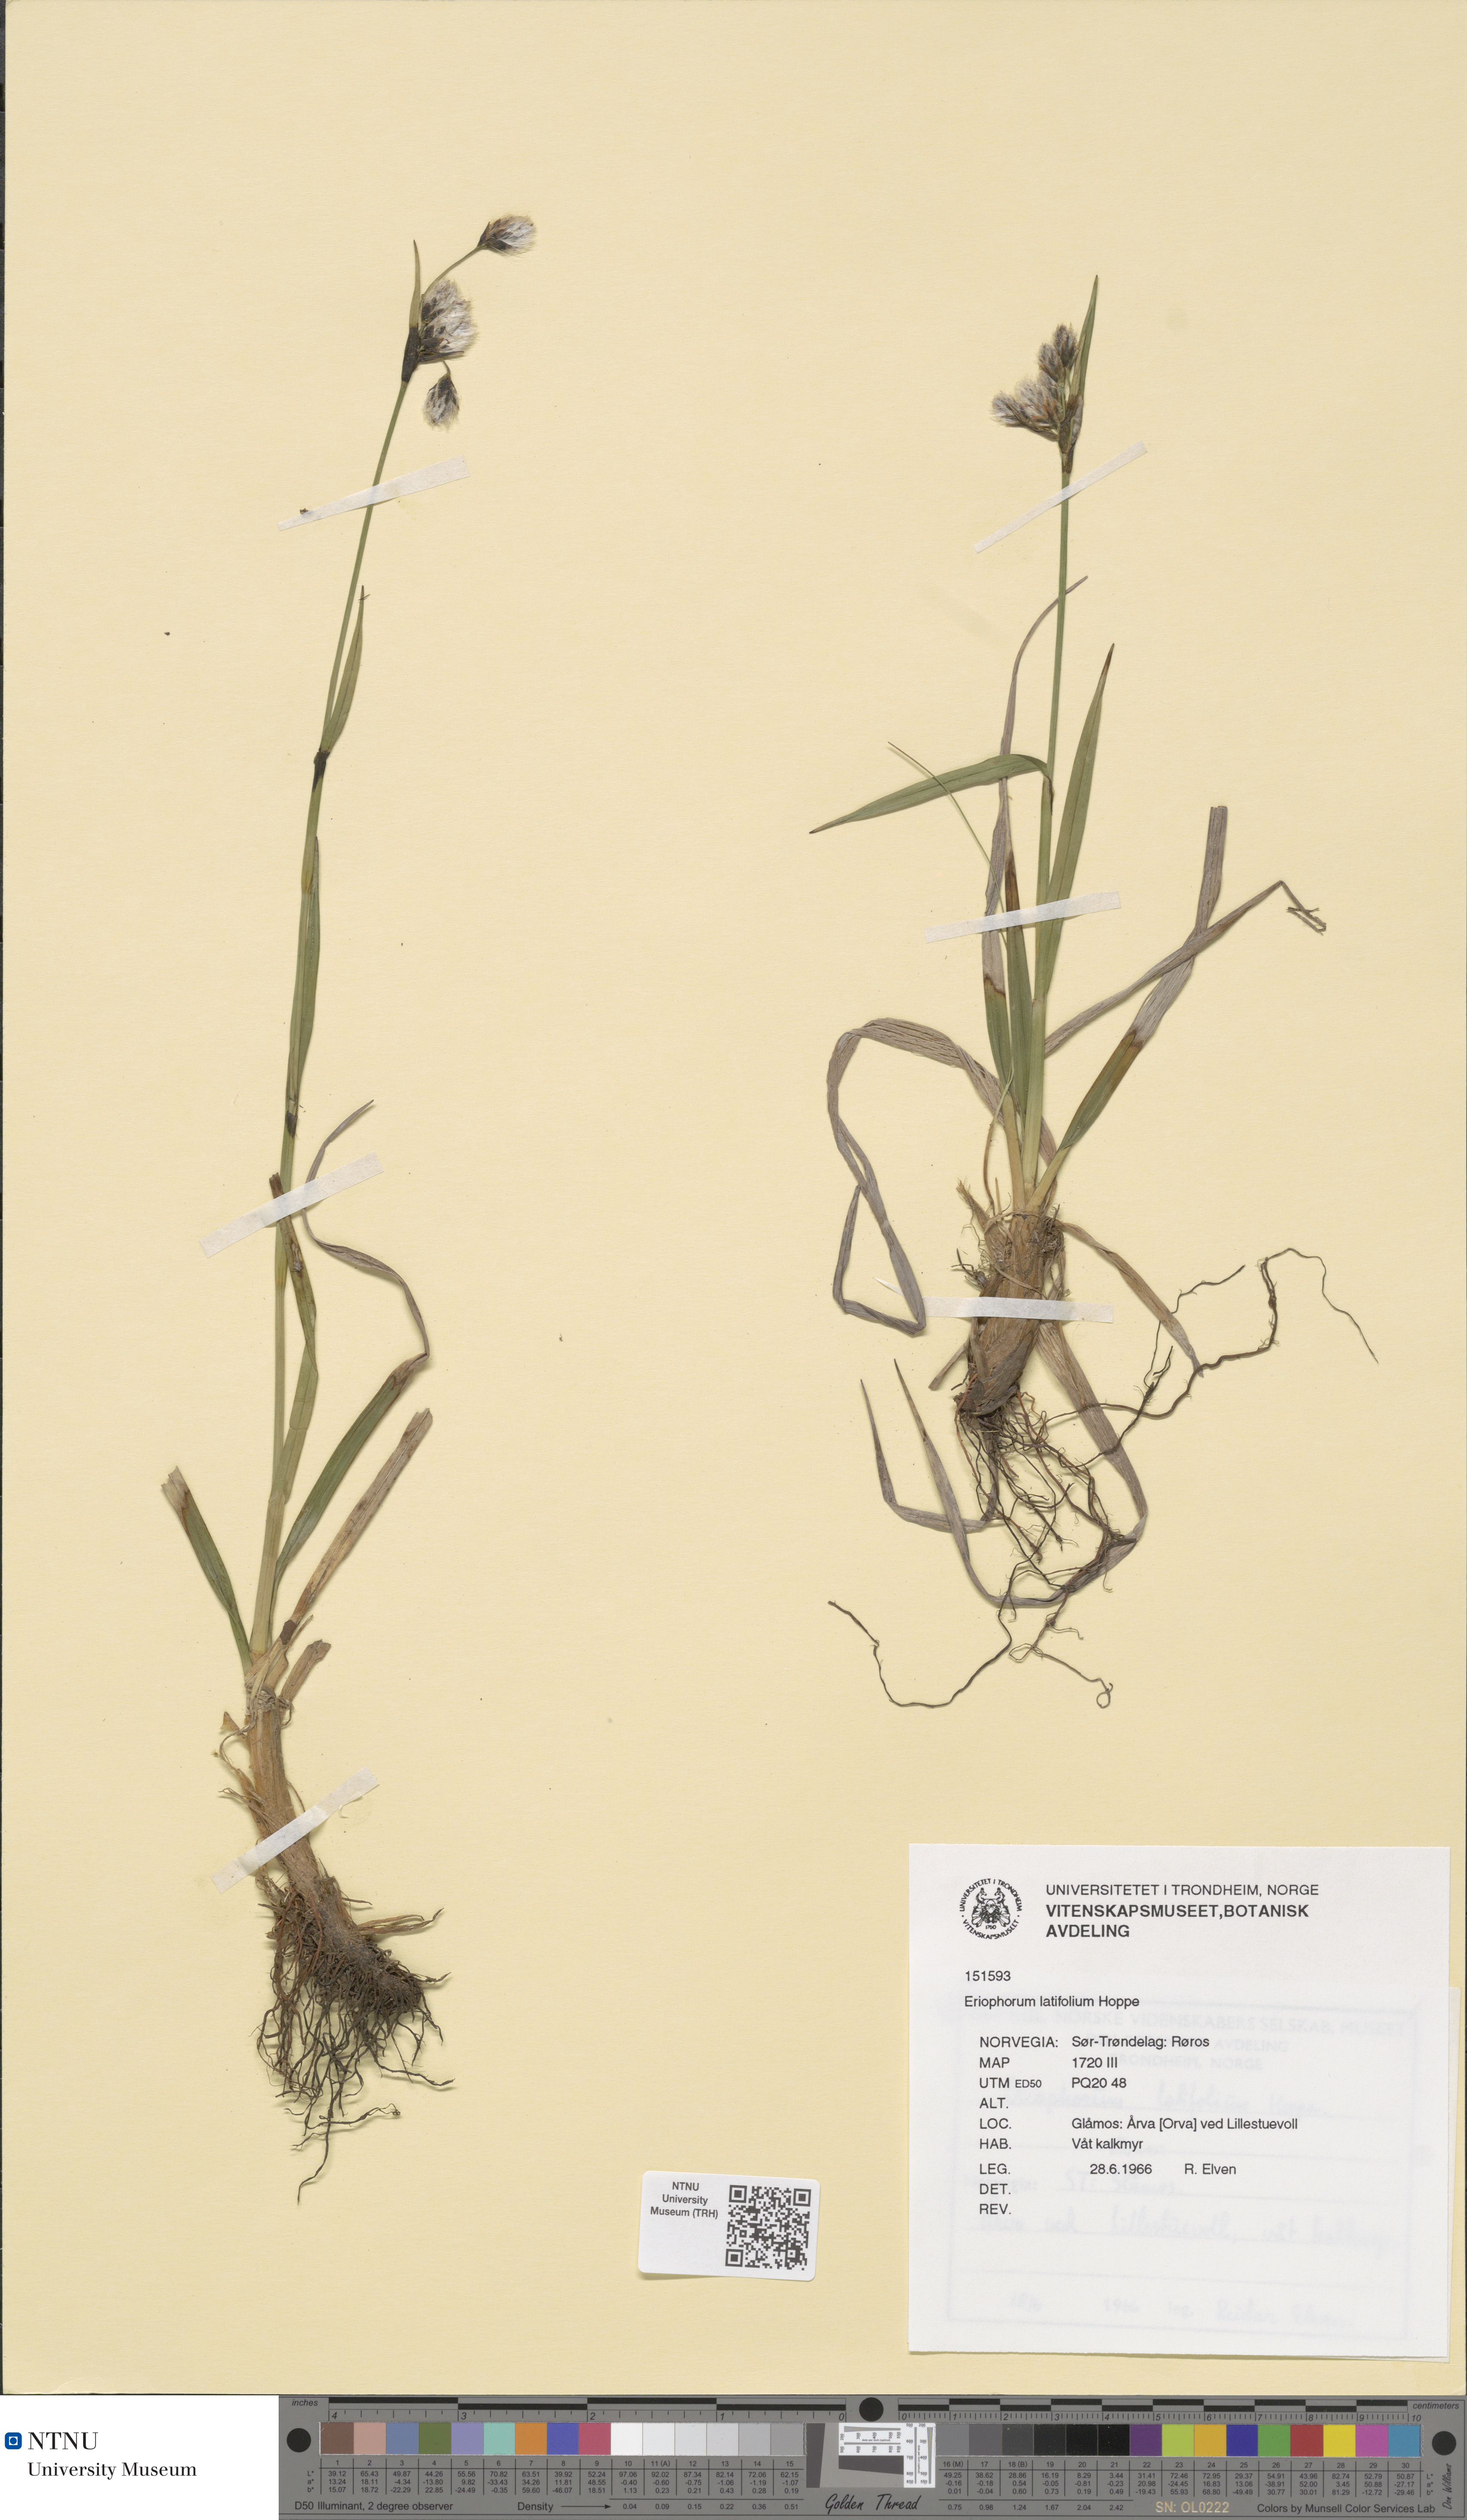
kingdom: Plantae
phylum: Tracheophyta
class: Liliopsida
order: Poales
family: Cyperaceae
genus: Eriophorum
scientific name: Eriophorum latifolium
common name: Broad-leaved cottongrass
